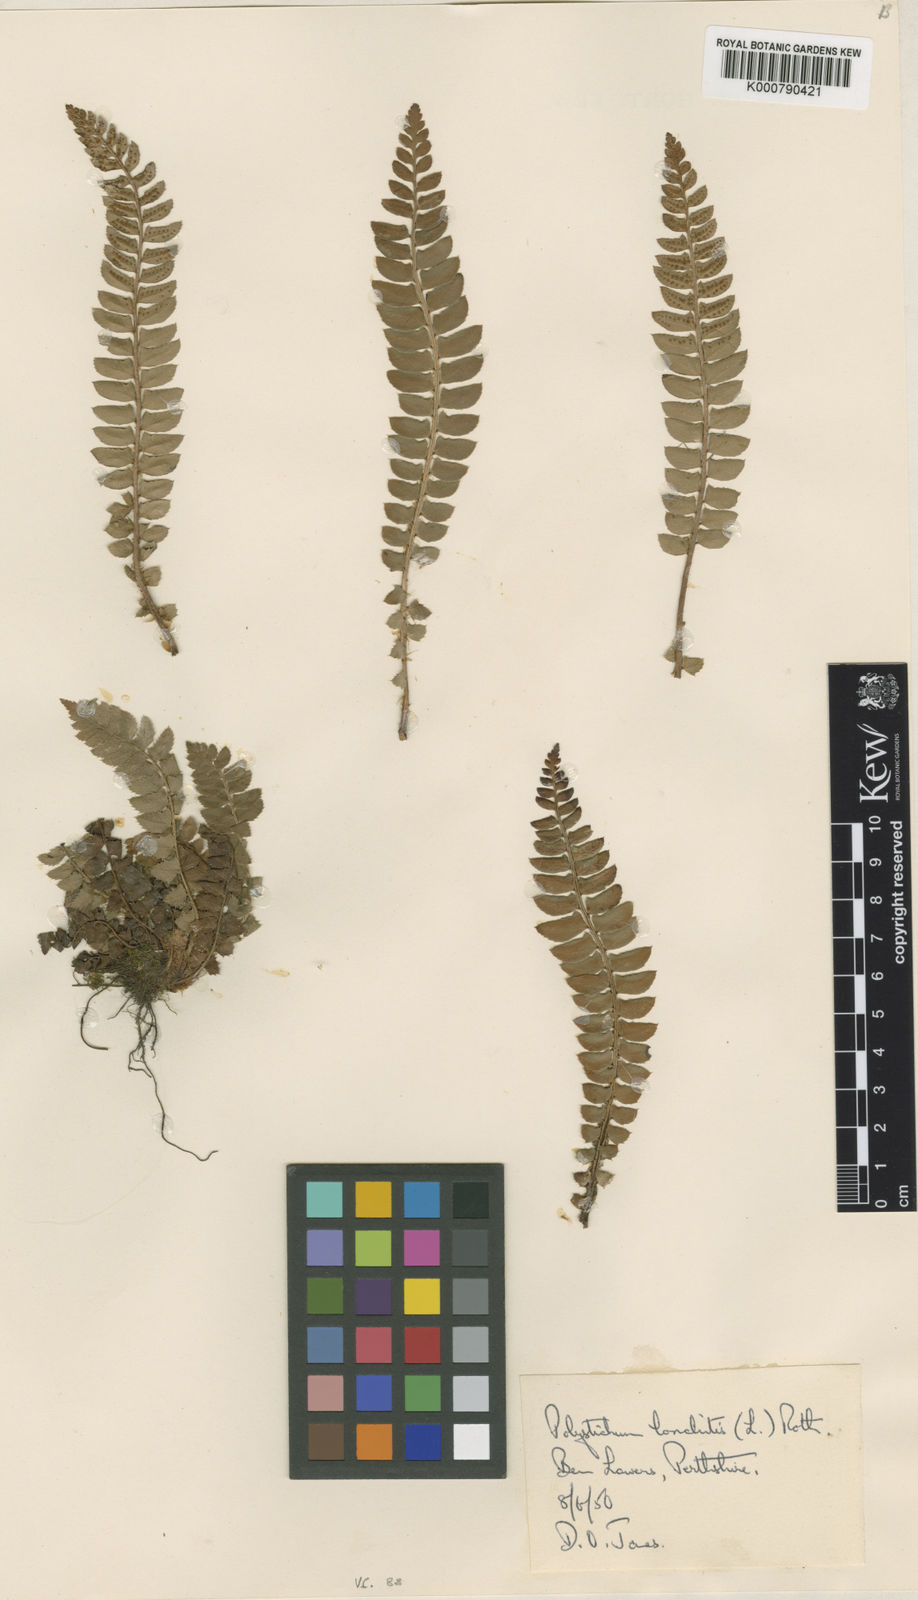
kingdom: Plantae
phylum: Tracheophyta
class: Polypodiopsida
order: Polypodiales
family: Dryopteridaceae
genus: Polystichum
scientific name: Polystichum
